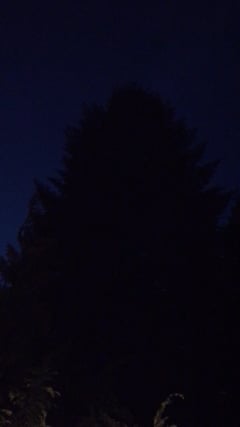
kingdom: Animalia
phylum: Chordata
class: Aves
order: Passeriformes
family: Turdidae
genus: Turdus
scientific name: Turdus philomelos
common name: Song thrush
